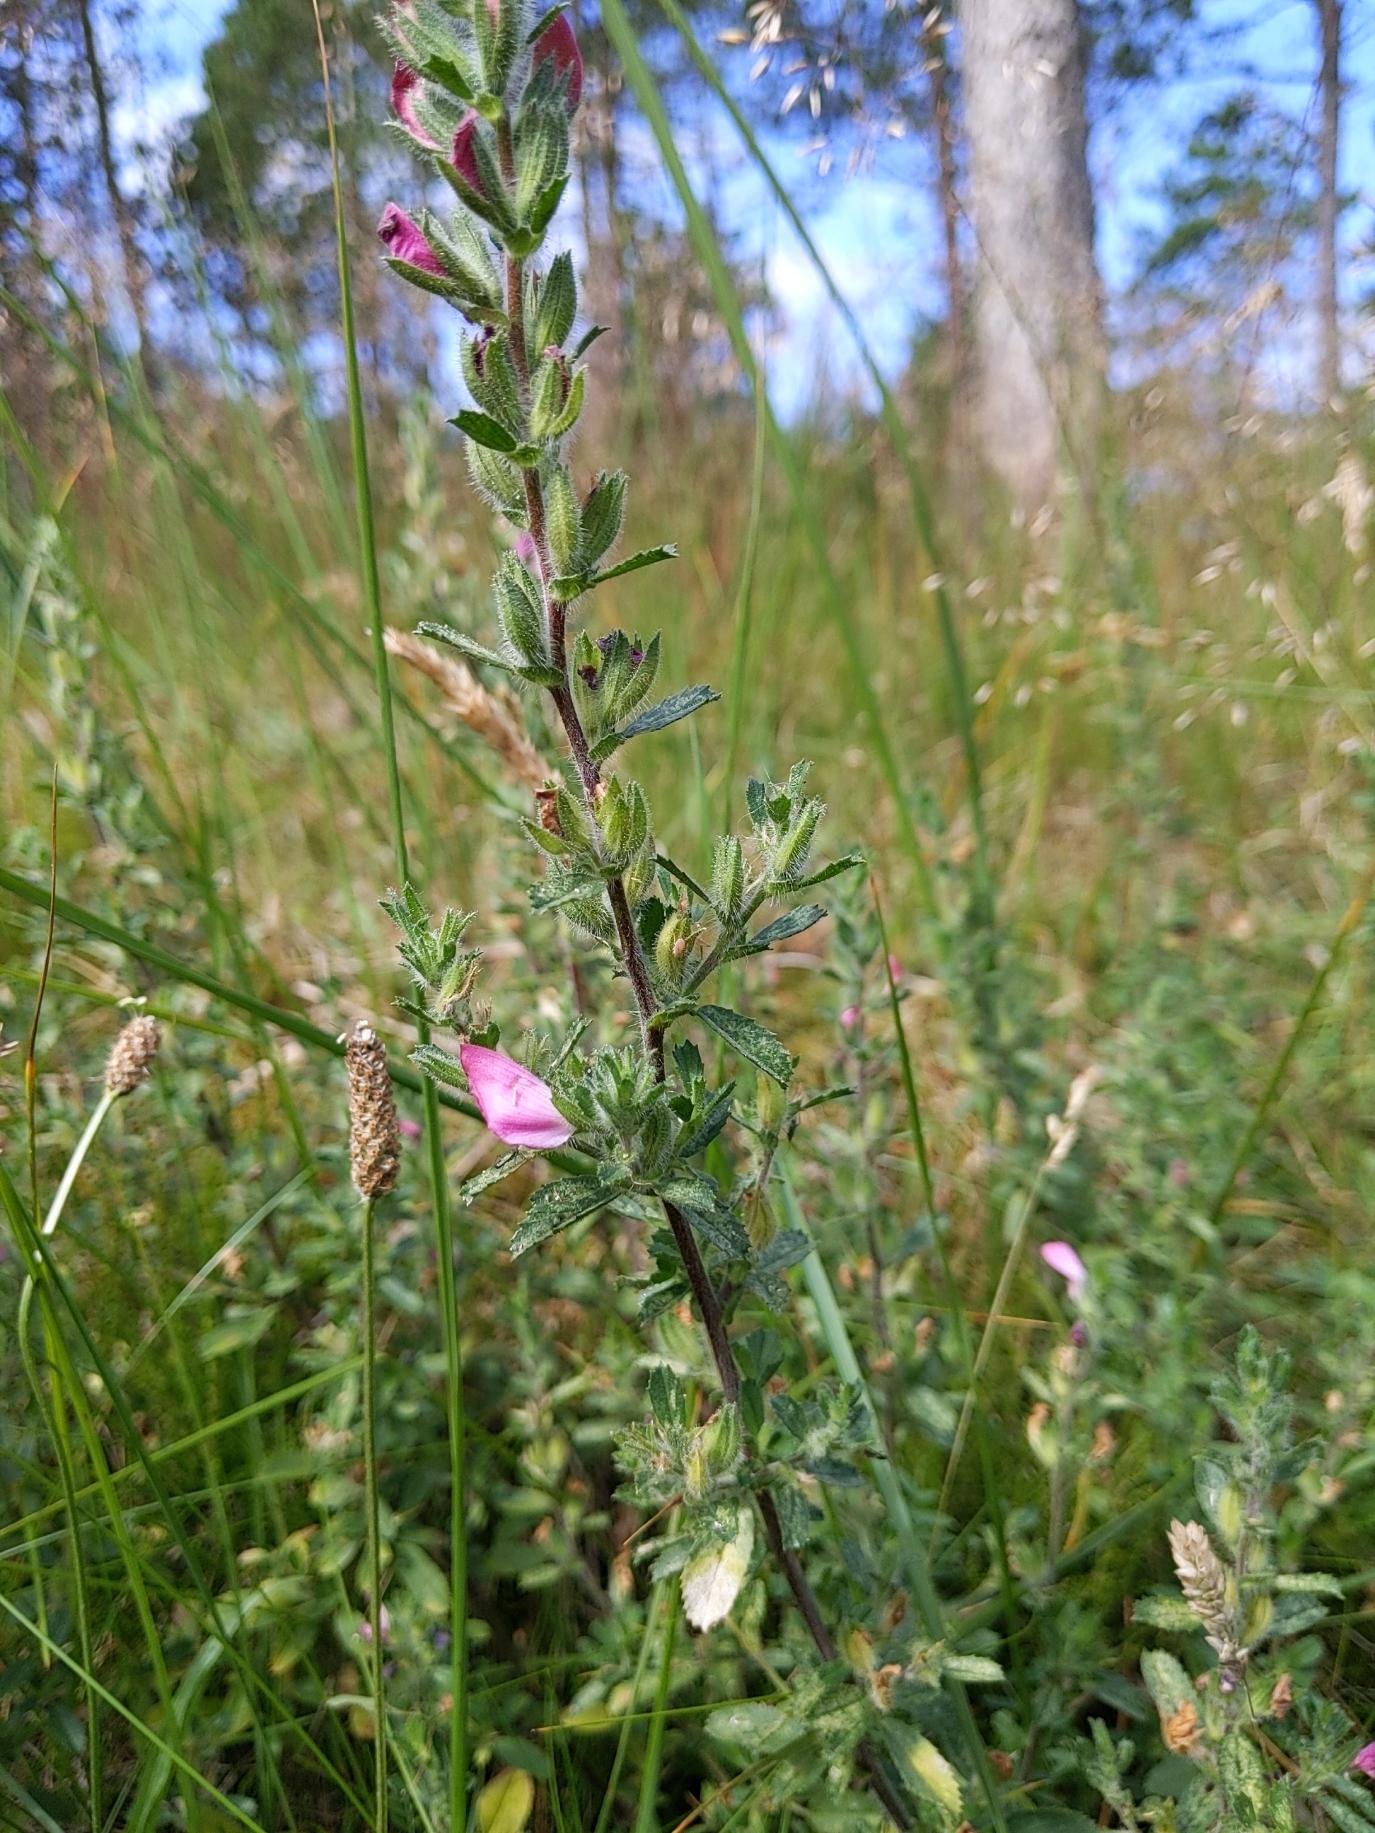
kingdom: Plantae
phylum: Tracheophyta
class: Magnoliopsida
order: Fabales
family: Fabaceae
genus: Ononis
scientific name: Ononis spinosa
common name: Mark-krageklo
